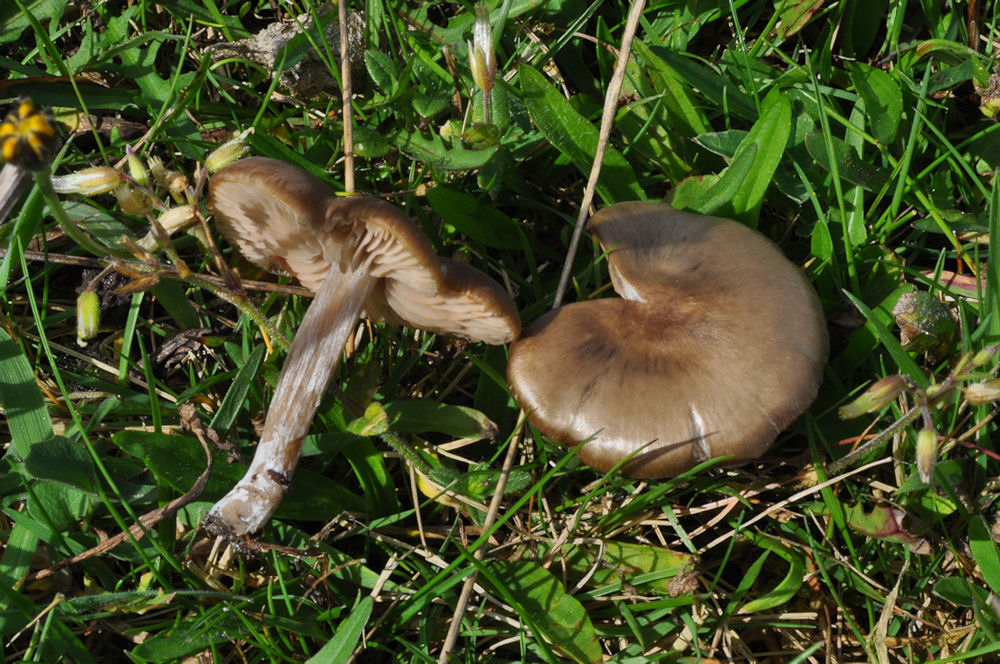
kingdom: Fungi
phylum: Basidiomycota
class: Agaricomycetes
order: Agaricales
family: Entolomataceae
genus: Entoloma
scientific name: Entoloma sericeum
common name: silkeglinsende rødblad
